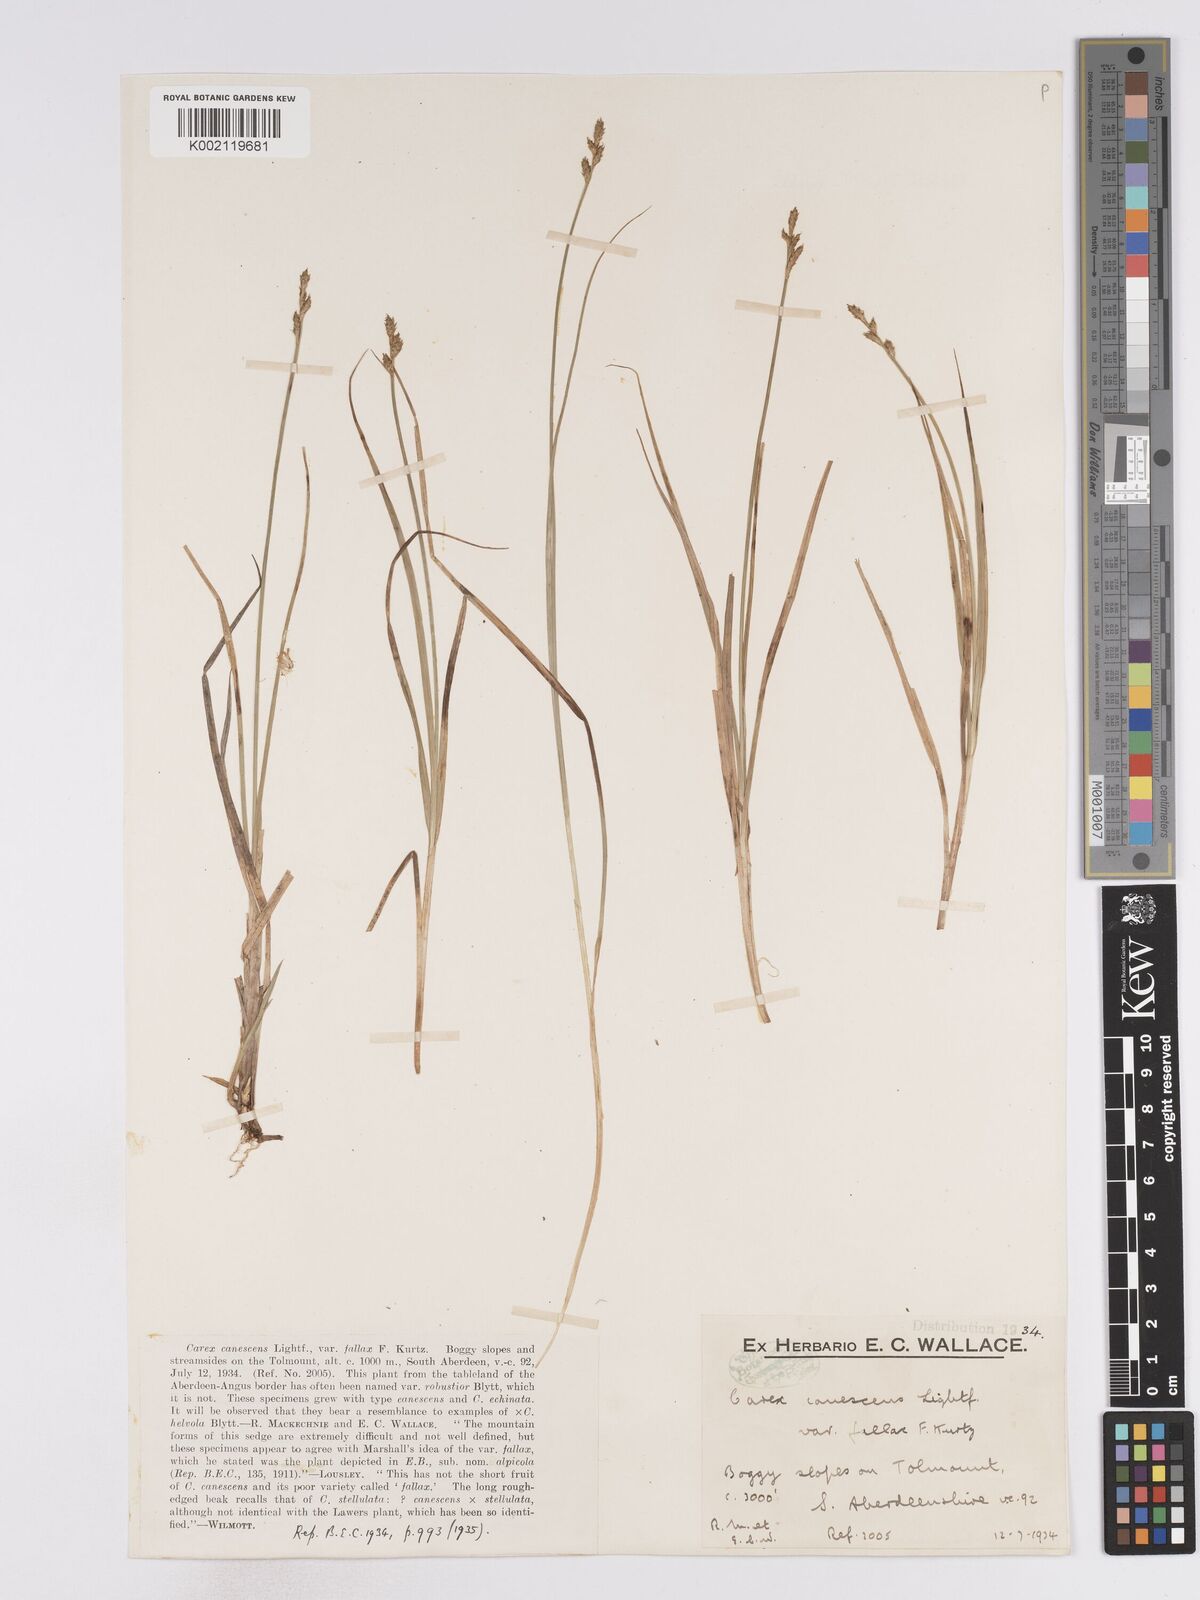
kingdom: Plantae
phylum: Tracheophyta
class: Liliopsida
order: Poales
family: Cyperaceae
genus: Carex
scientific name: Carex curta
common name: White sedge
